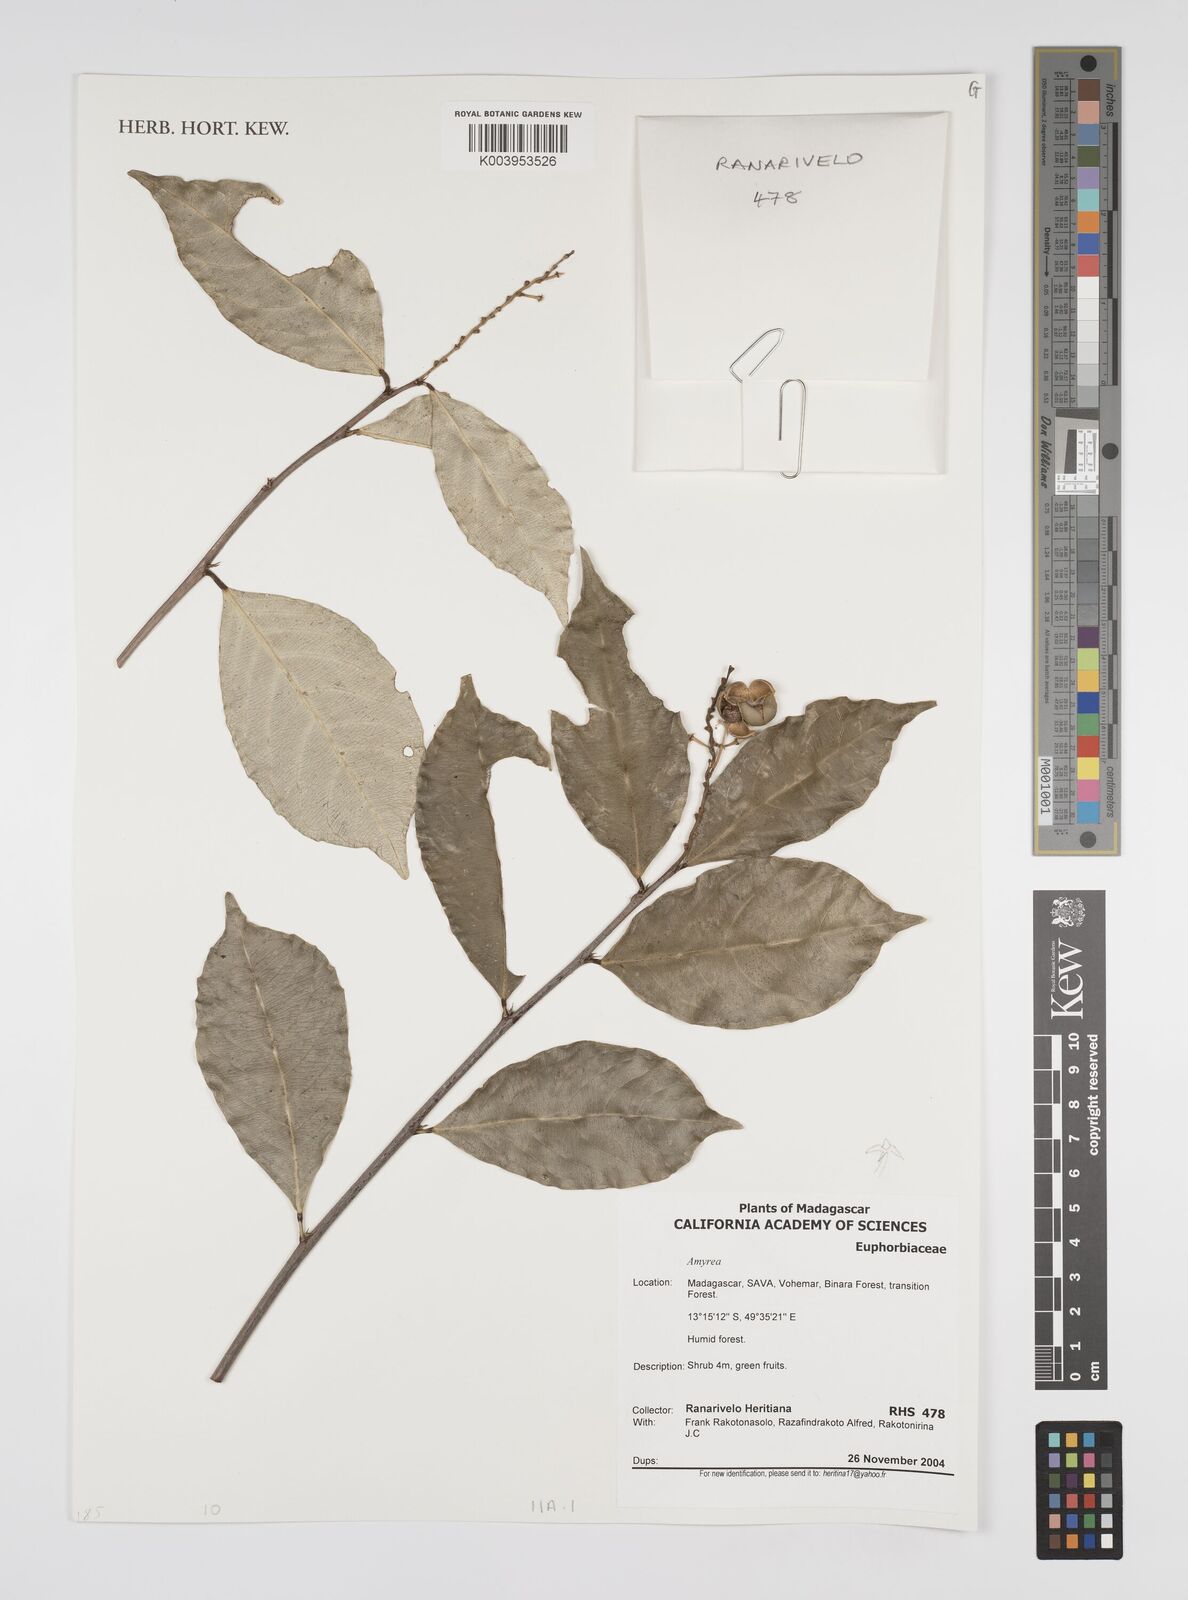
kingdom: Plantae
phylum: Tracheophyta
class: Magnoliopsida
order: Malpighiales
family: Euphorbiaceae
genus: Amyrea
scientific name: Amyrea
